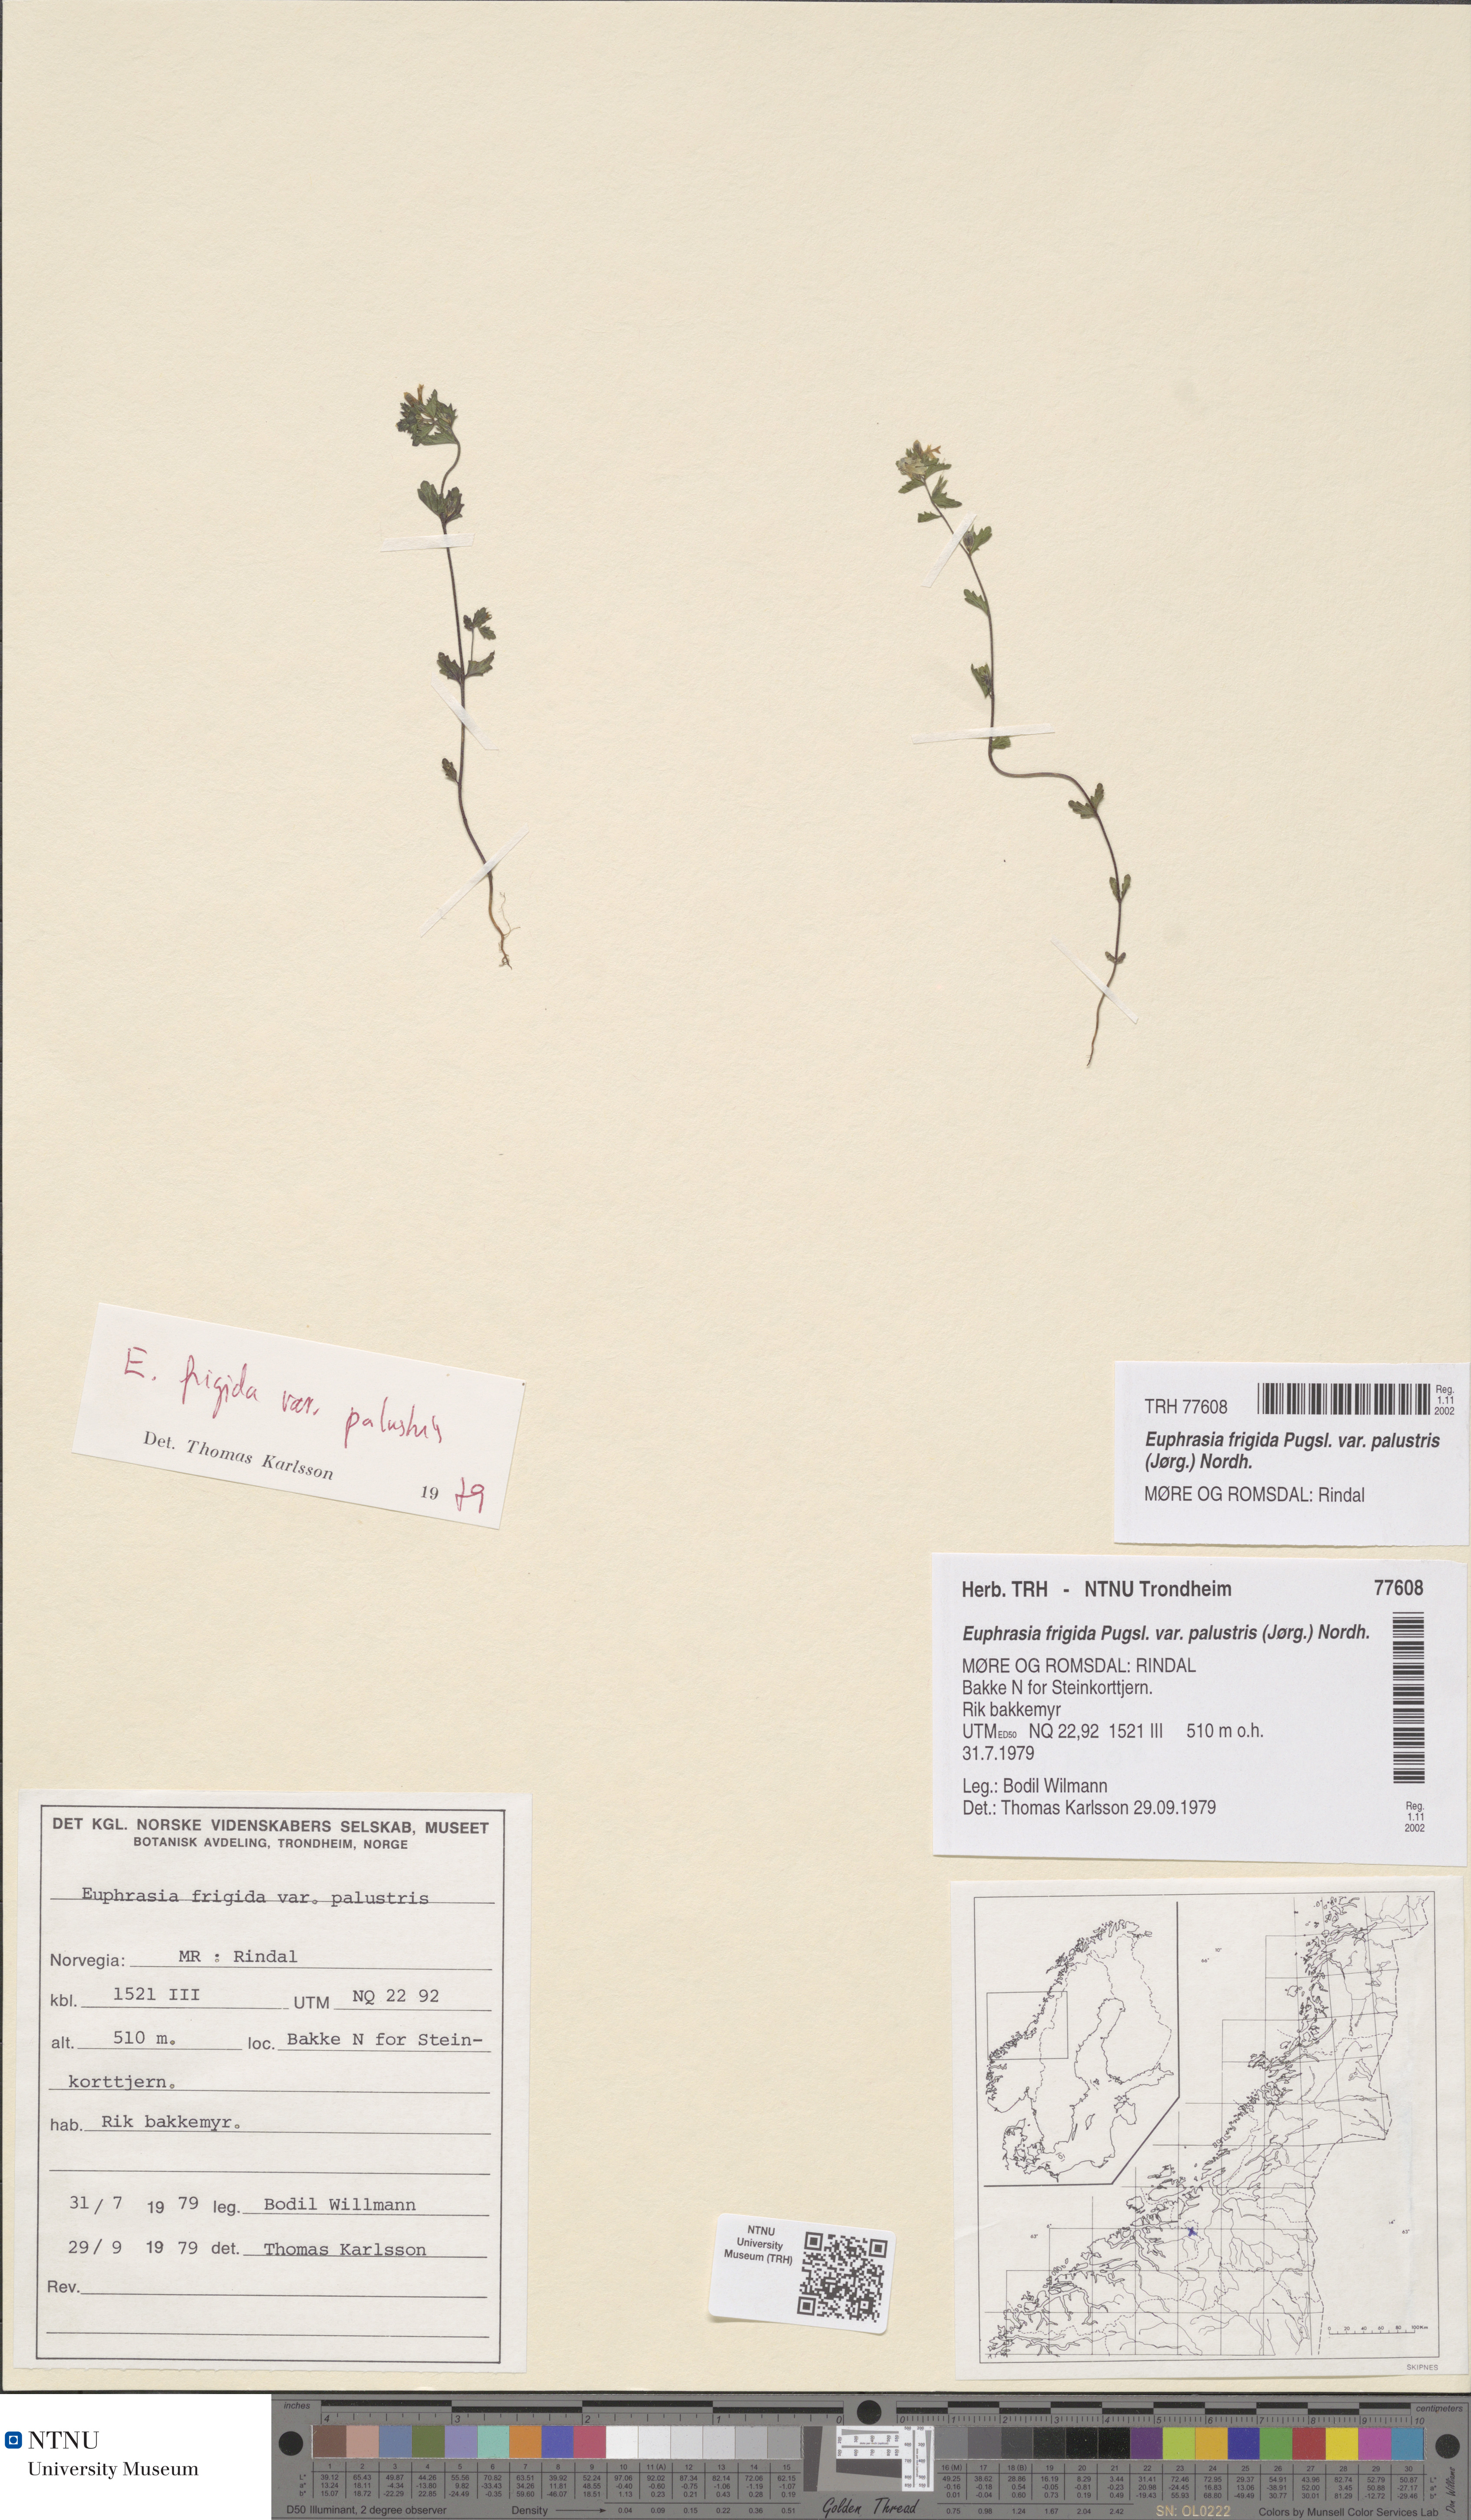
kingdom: Plantae
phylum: Tracheophyta
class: Magnoliopsida
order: Lamiales
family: Orobanchaceae
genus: Euphrasia
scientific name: Euphrasia wettsteinii
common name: Wettstein's eyebright
